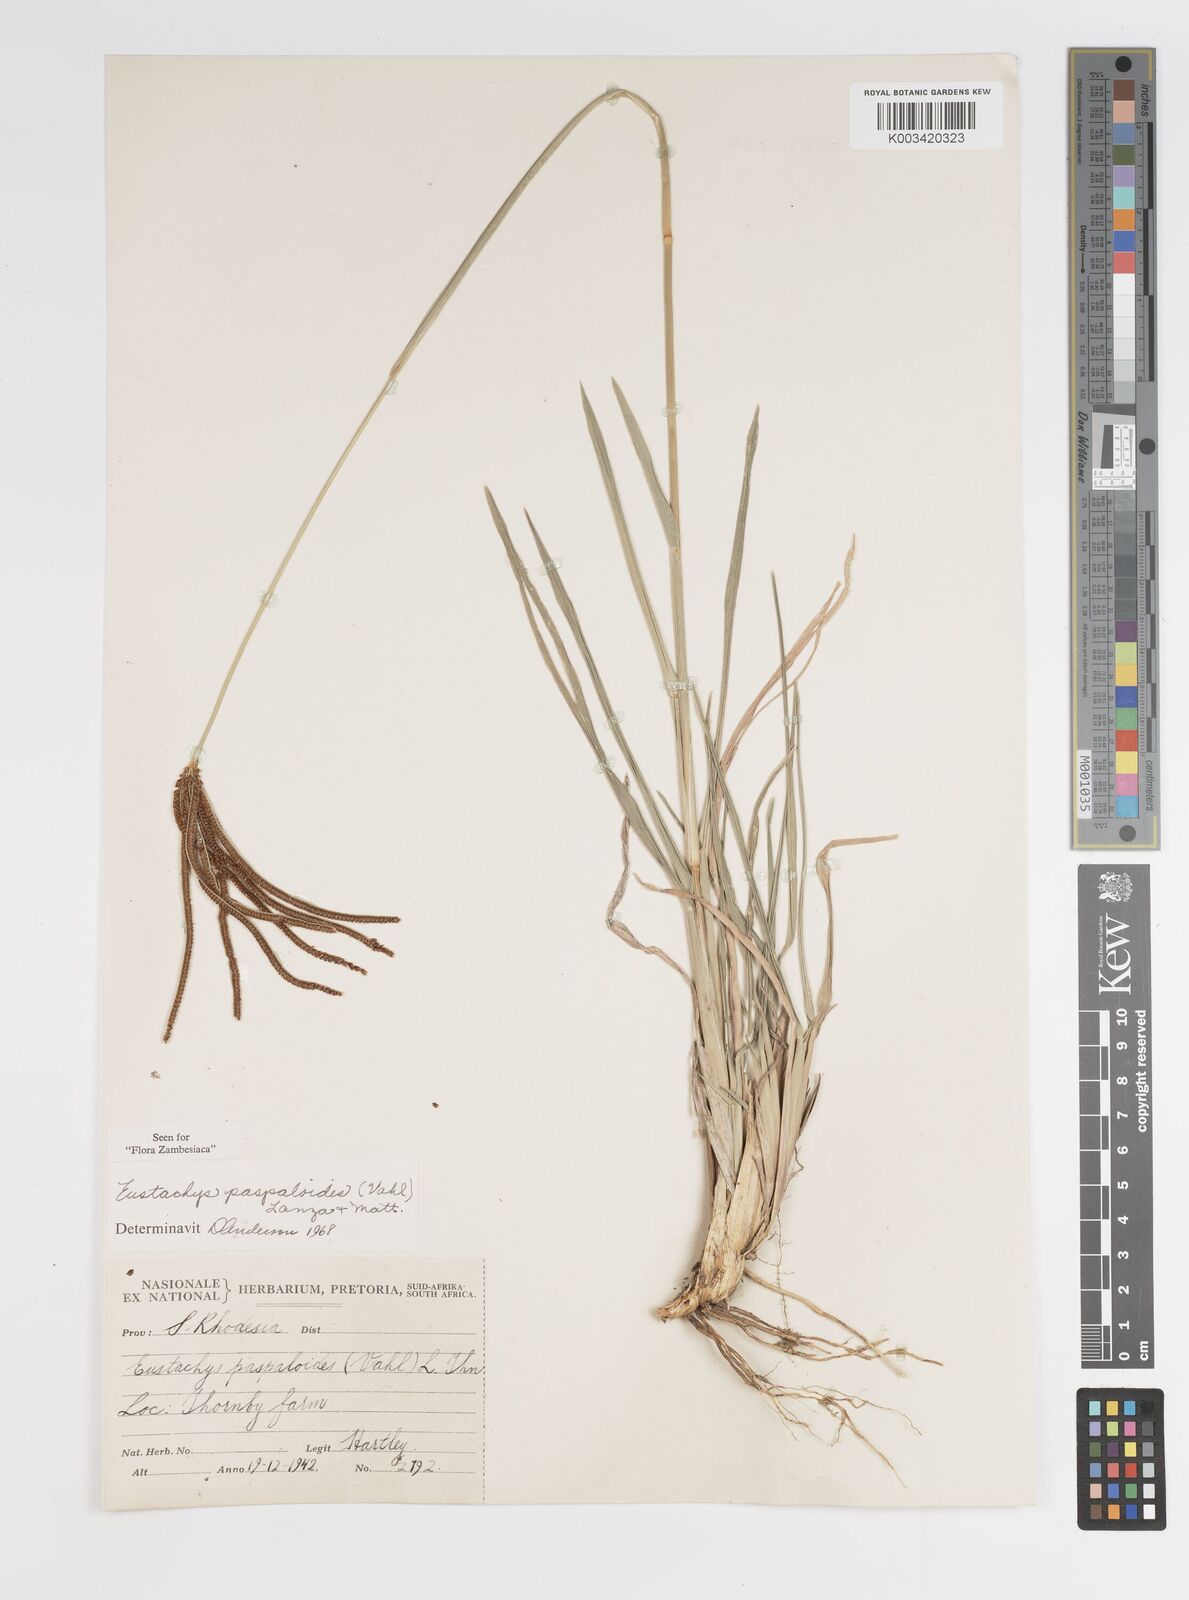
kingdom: Plantae
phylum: Tracheophyta
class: Liliopsida
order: Poales
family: Poaceae
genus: Eustachys
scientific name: Eustachys paspaloides
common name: Caribbean fingergrass
